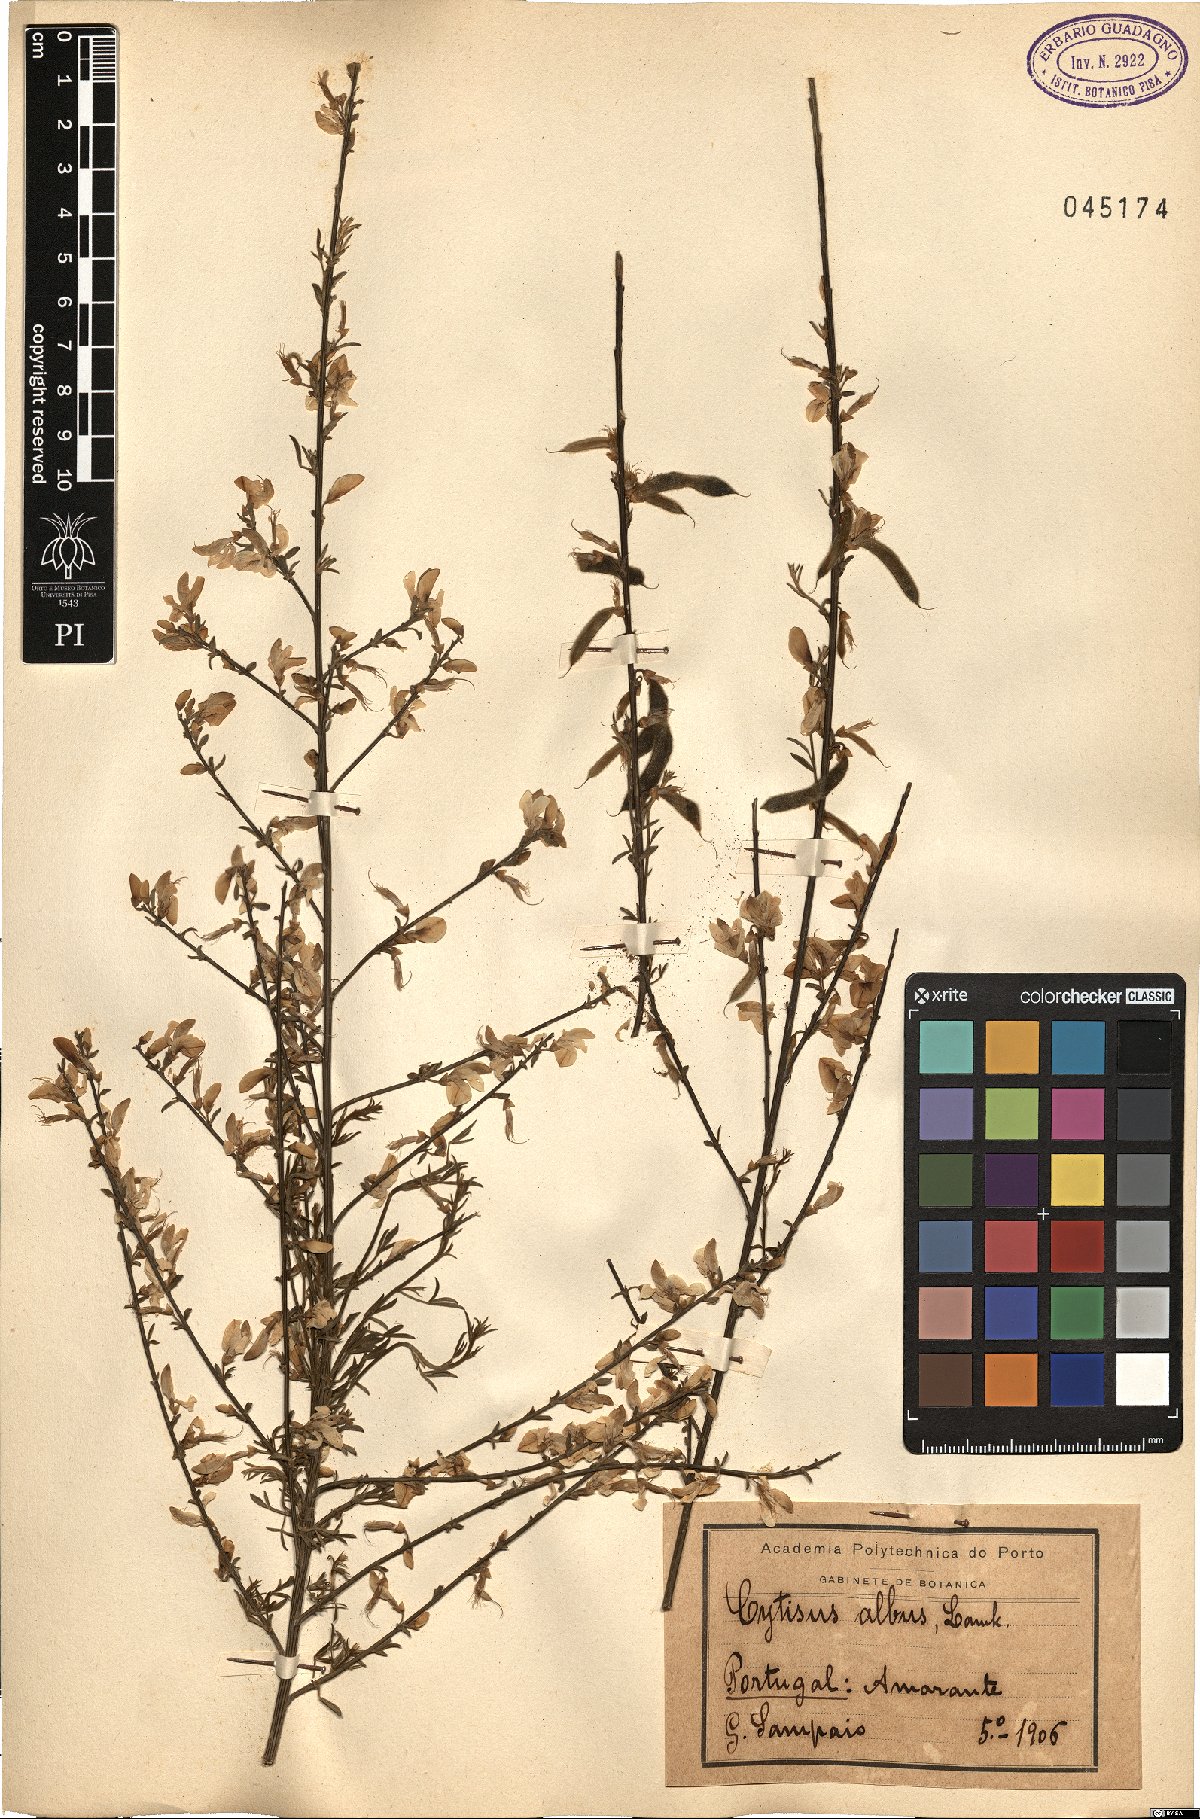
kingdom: Plantae
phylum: Tracheophyta
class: Magnoliopsida
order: Fabales
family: Fabaceae
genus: Chamaecytisus
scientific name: Chamaecytisus albus
